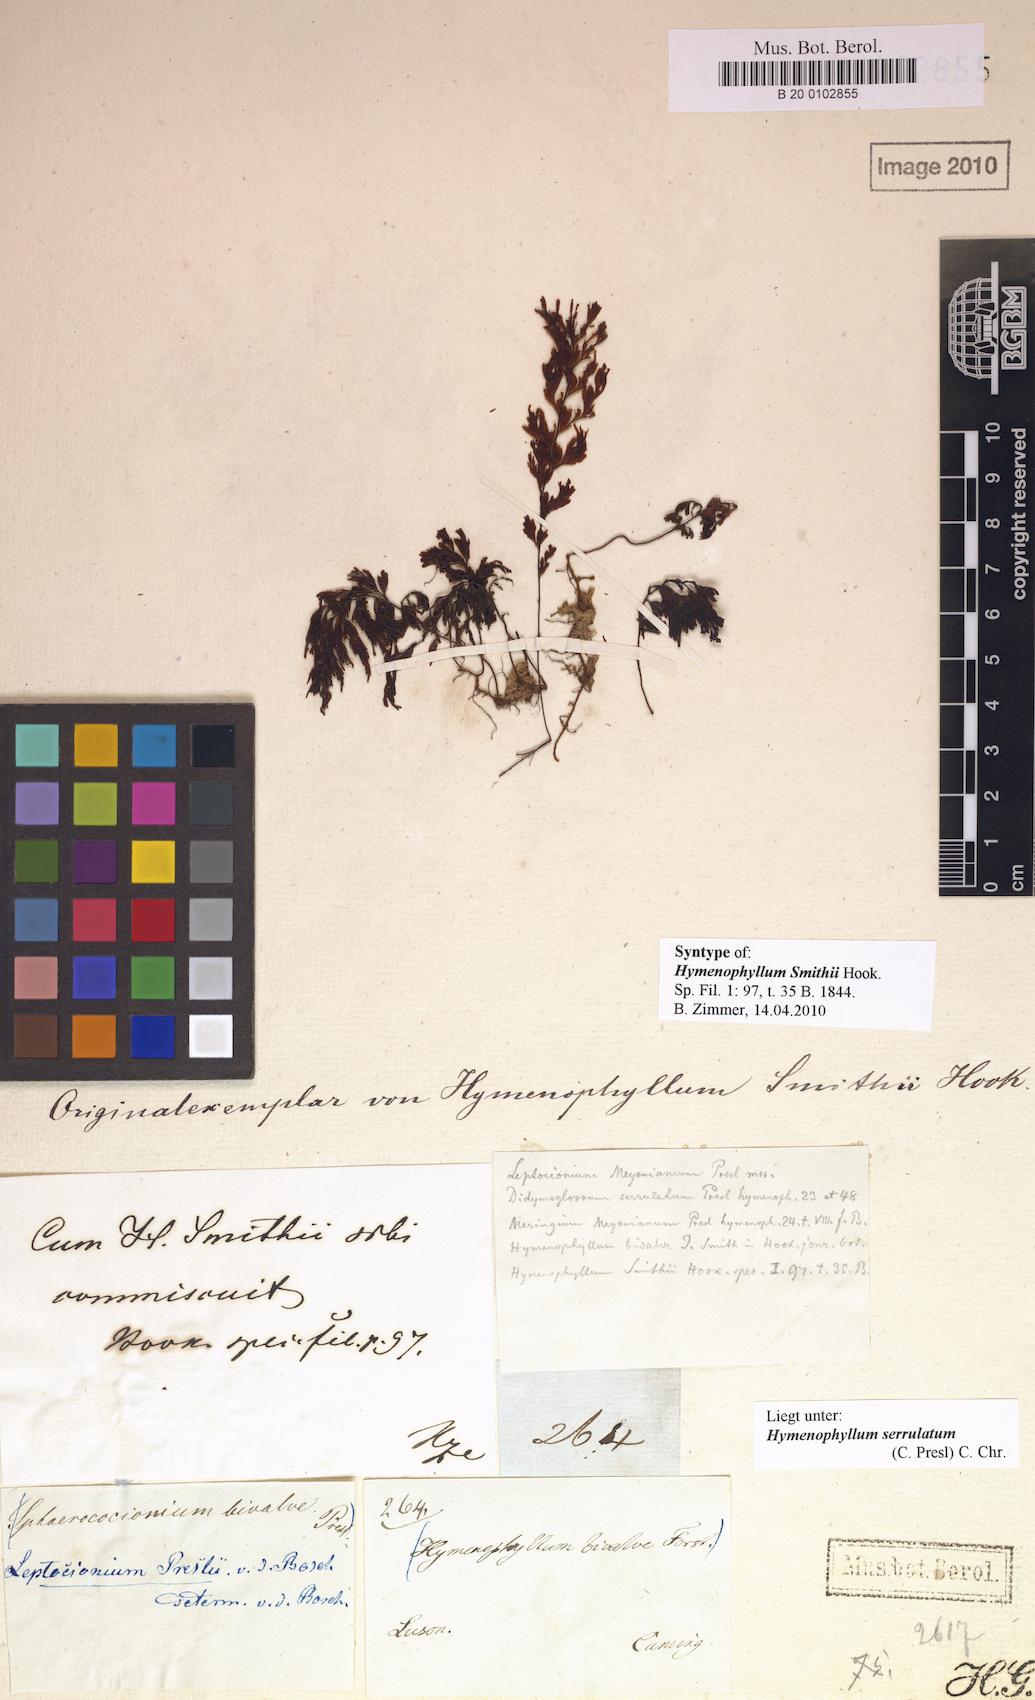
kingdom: Plantae
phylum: Tracheophyta
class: Polypodiopsida
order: Hymenophyllales
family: Hymenophyllaceae
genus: Hymenophyllum
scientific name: Hymenophyllum serrulatum
